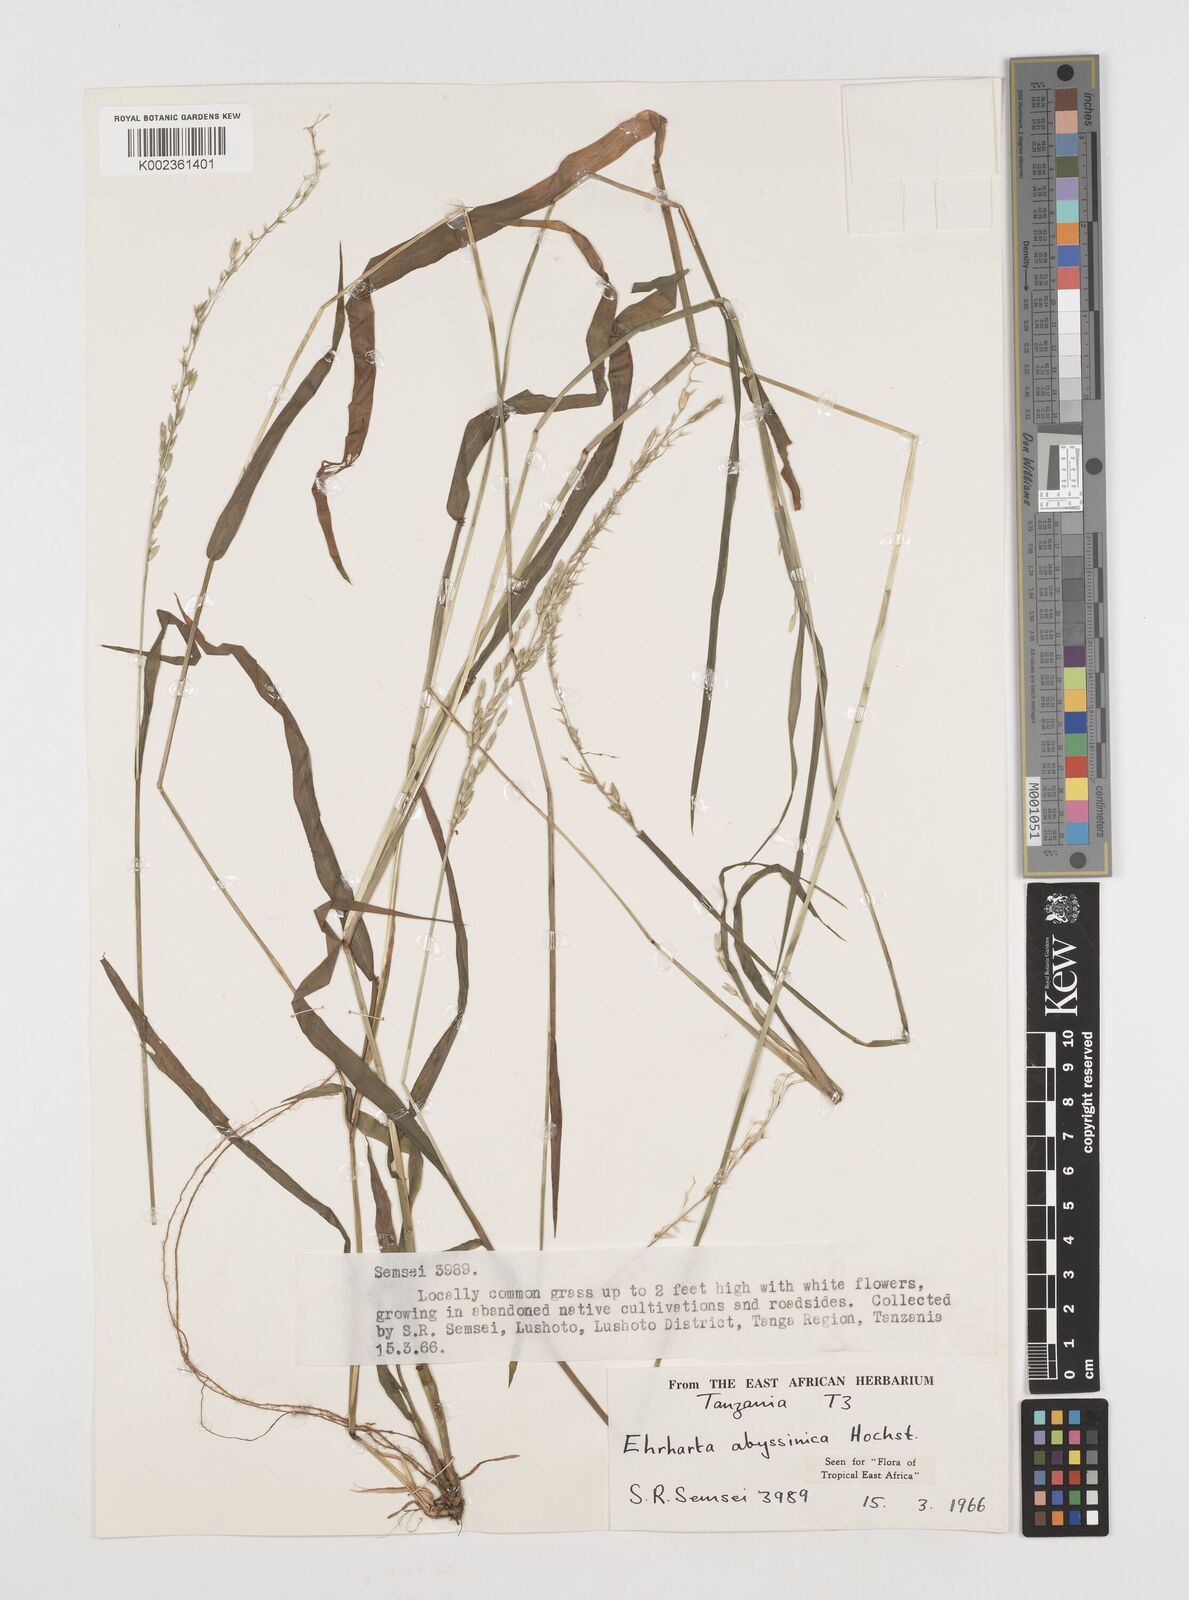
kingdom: Plantae
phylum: Tracheophyta
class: Liliopsida
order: Poales
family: Poaceae
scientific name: Poaceae
